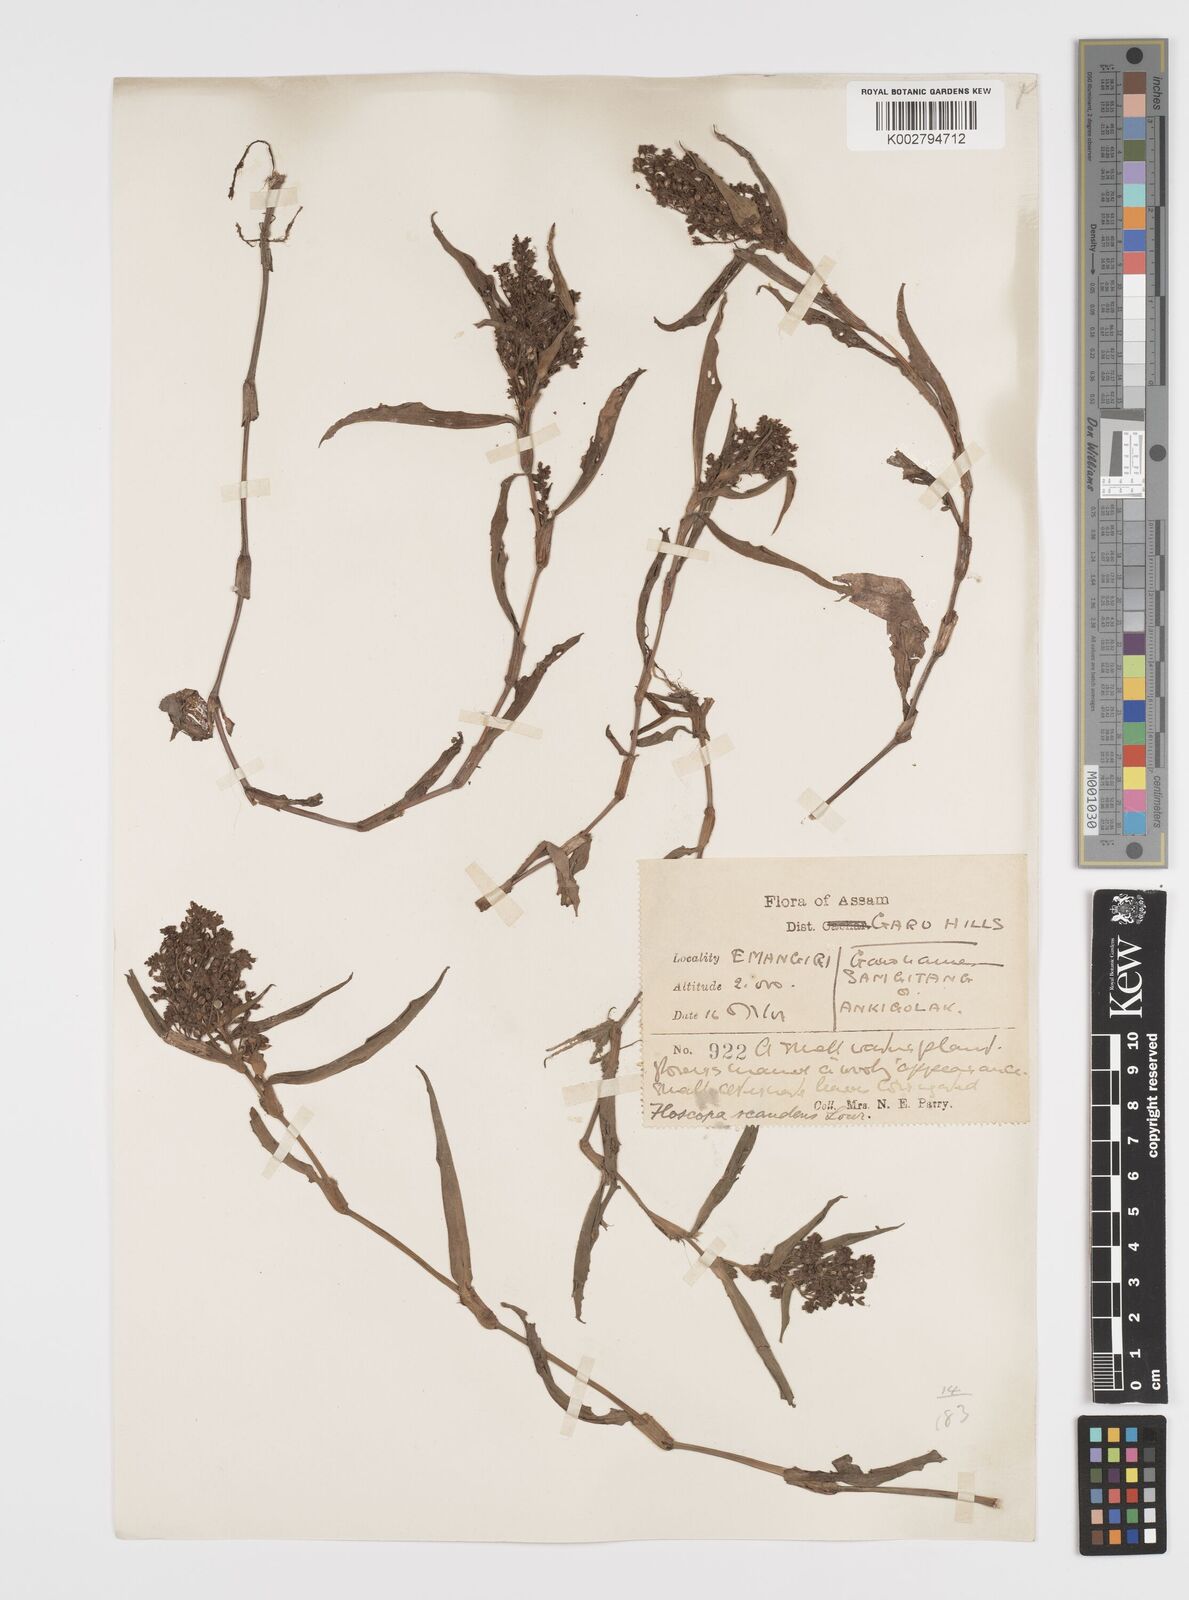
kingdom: Plantae
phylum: Tracheophyta
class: Liliopsida
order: Commelinales
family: Commelinaceae
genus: Floscopa
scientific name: Floscopa scandens
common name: Climbing flower cup
